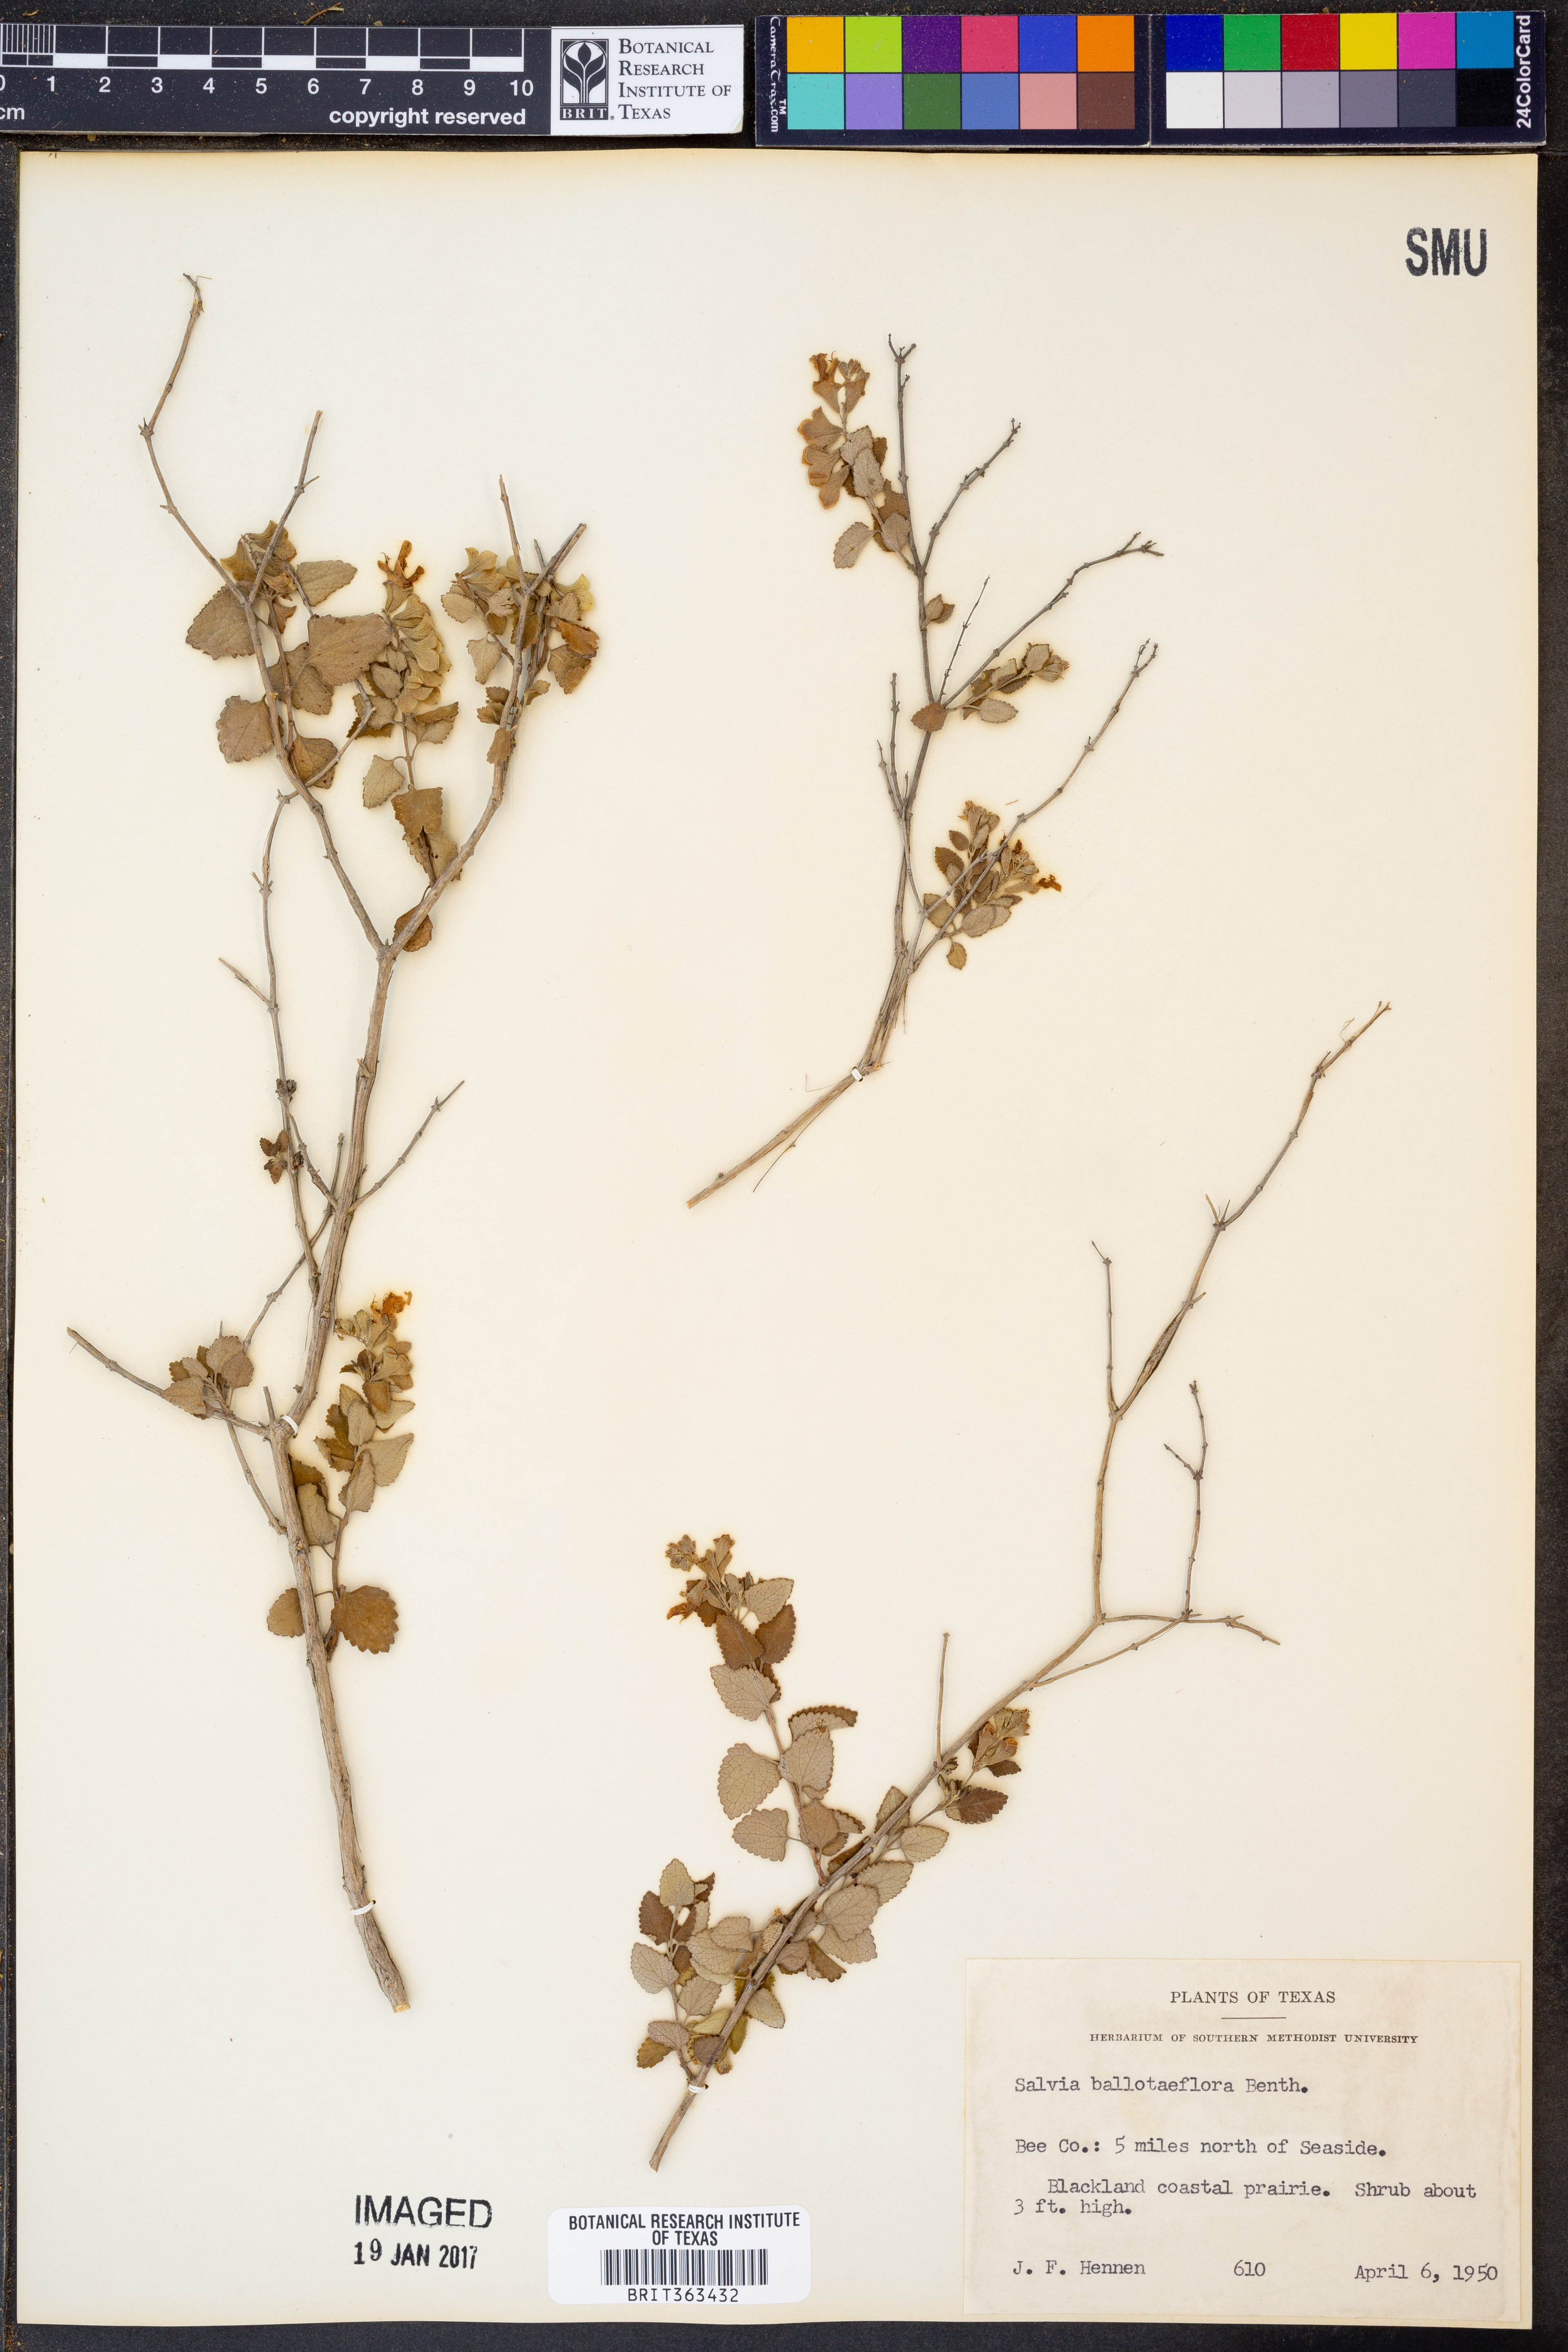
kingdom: Plantae
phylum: Tracheophyta
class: Magnoliopsida
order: Lamiales
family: Lamiaceae
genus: Salvia
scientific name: Salvia ballotiflora
